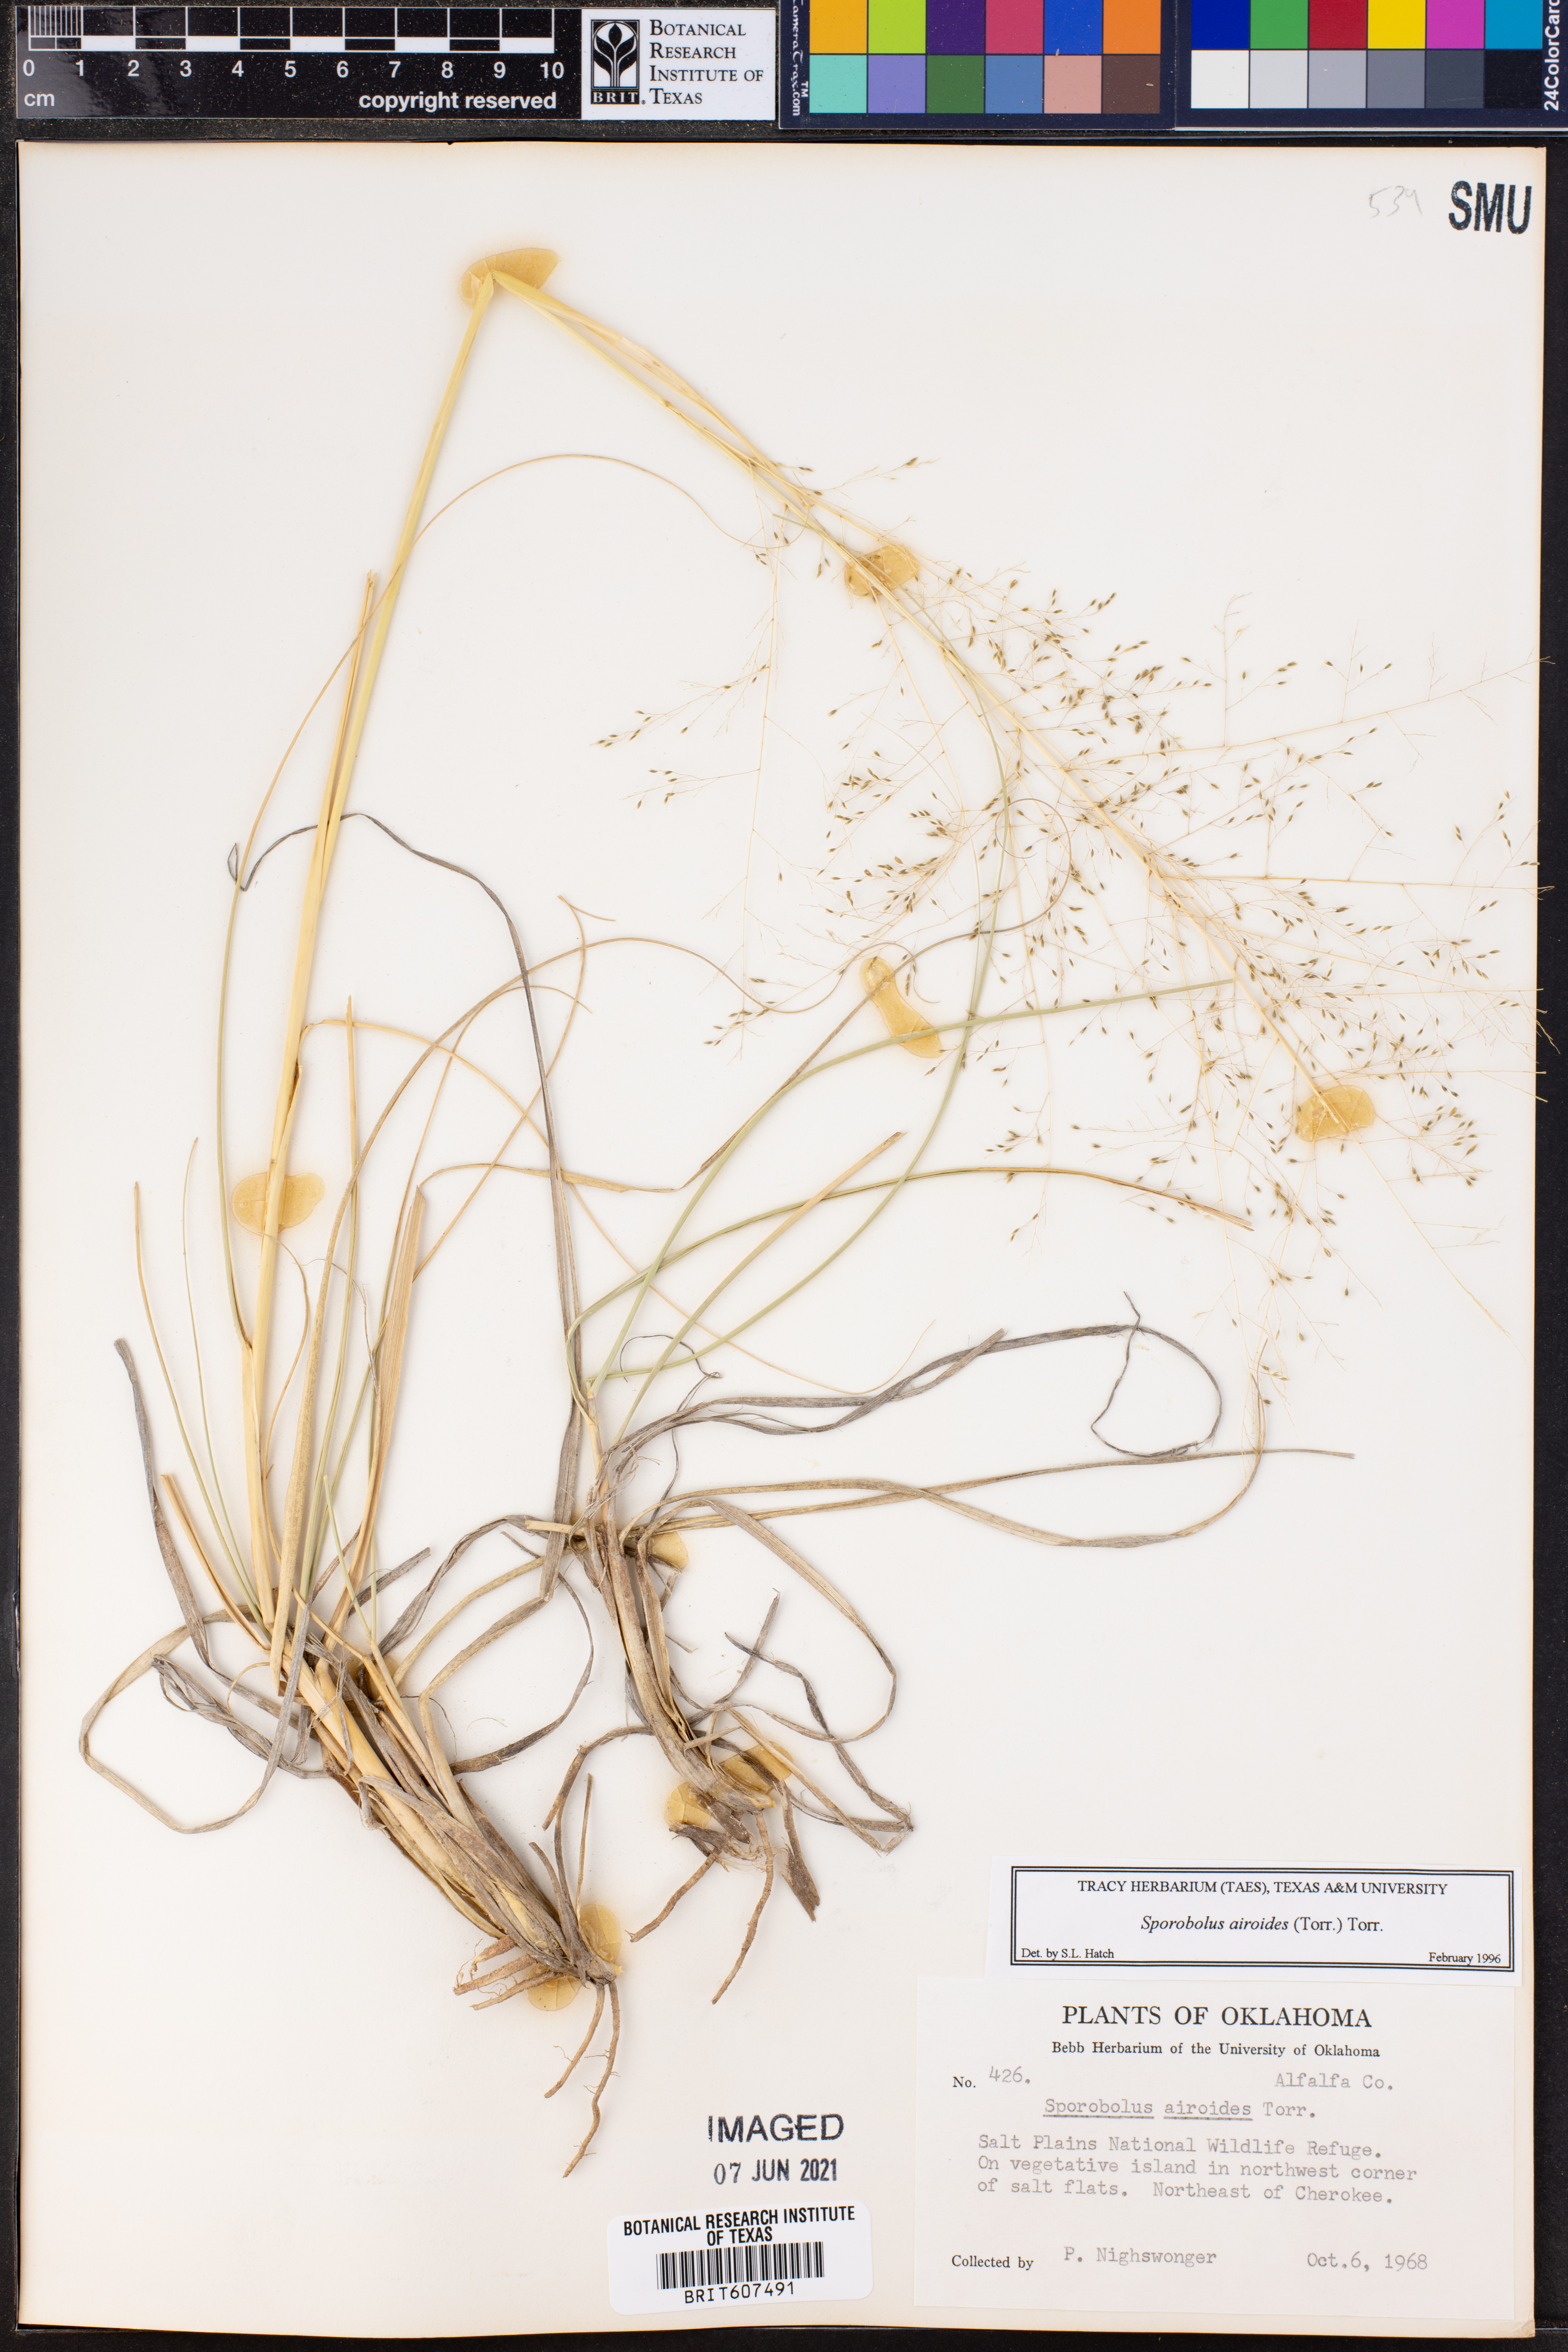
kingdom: Plantae
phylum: Tracheophyta
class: Liliopsida
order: Poales
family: Poaceae
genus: Sporobolus
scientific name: Sporobolus airoides
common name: Alkali sacaton
